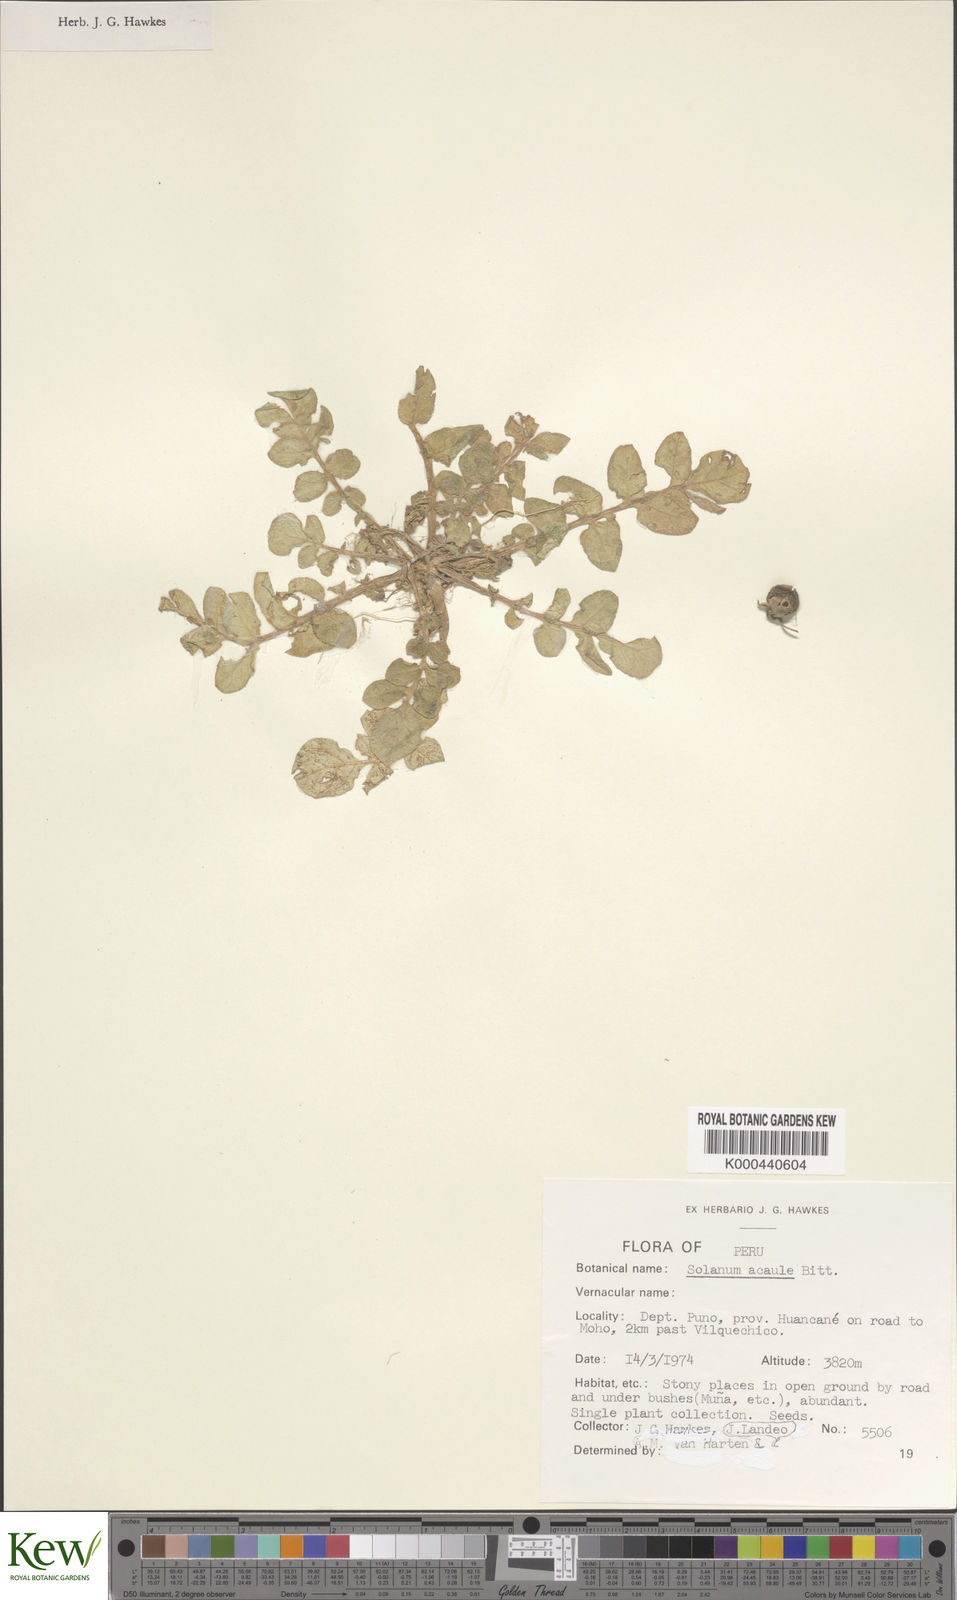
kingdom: Plantae
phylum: Tracheophyta
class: Magnoliopsida
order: Solanales
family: Solanaceae
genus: Solanum
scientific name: Solanum acaule
